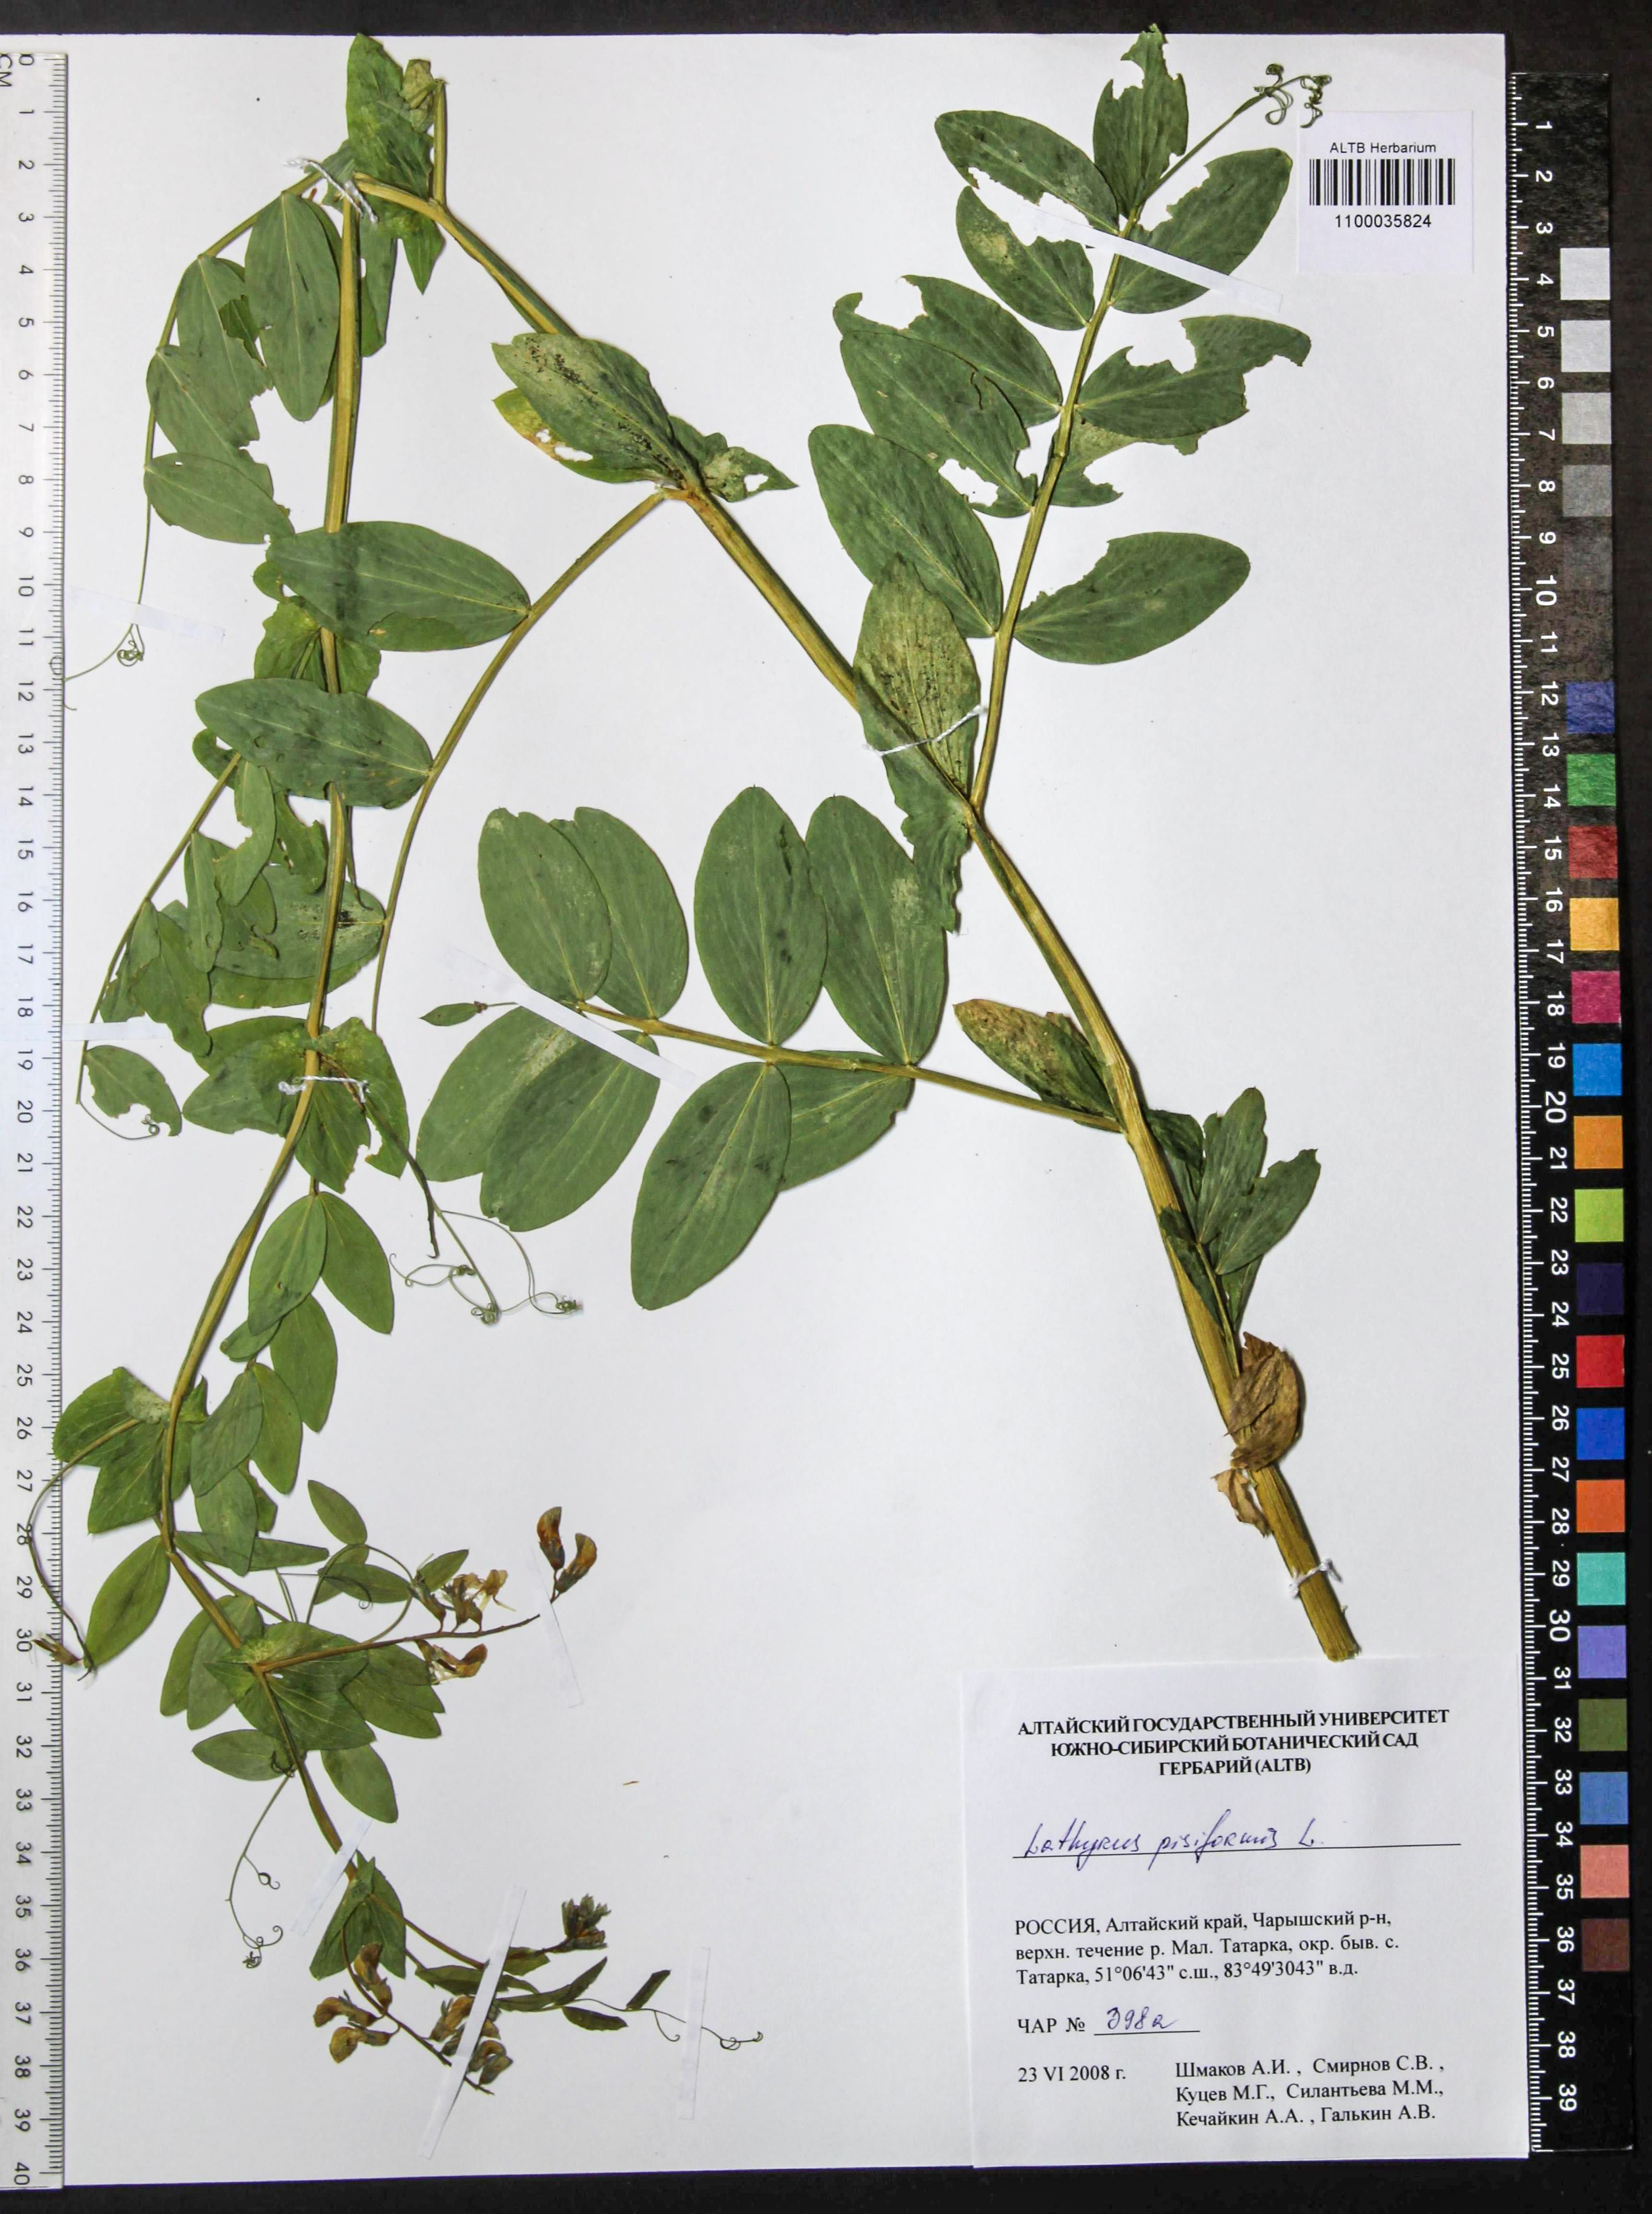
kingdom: Plantae
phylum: Tracheophyta
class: Magnoliopsida
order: Fabales
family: Fabaceae
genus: Lathyrus
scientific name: Lathyrus pisiformis
